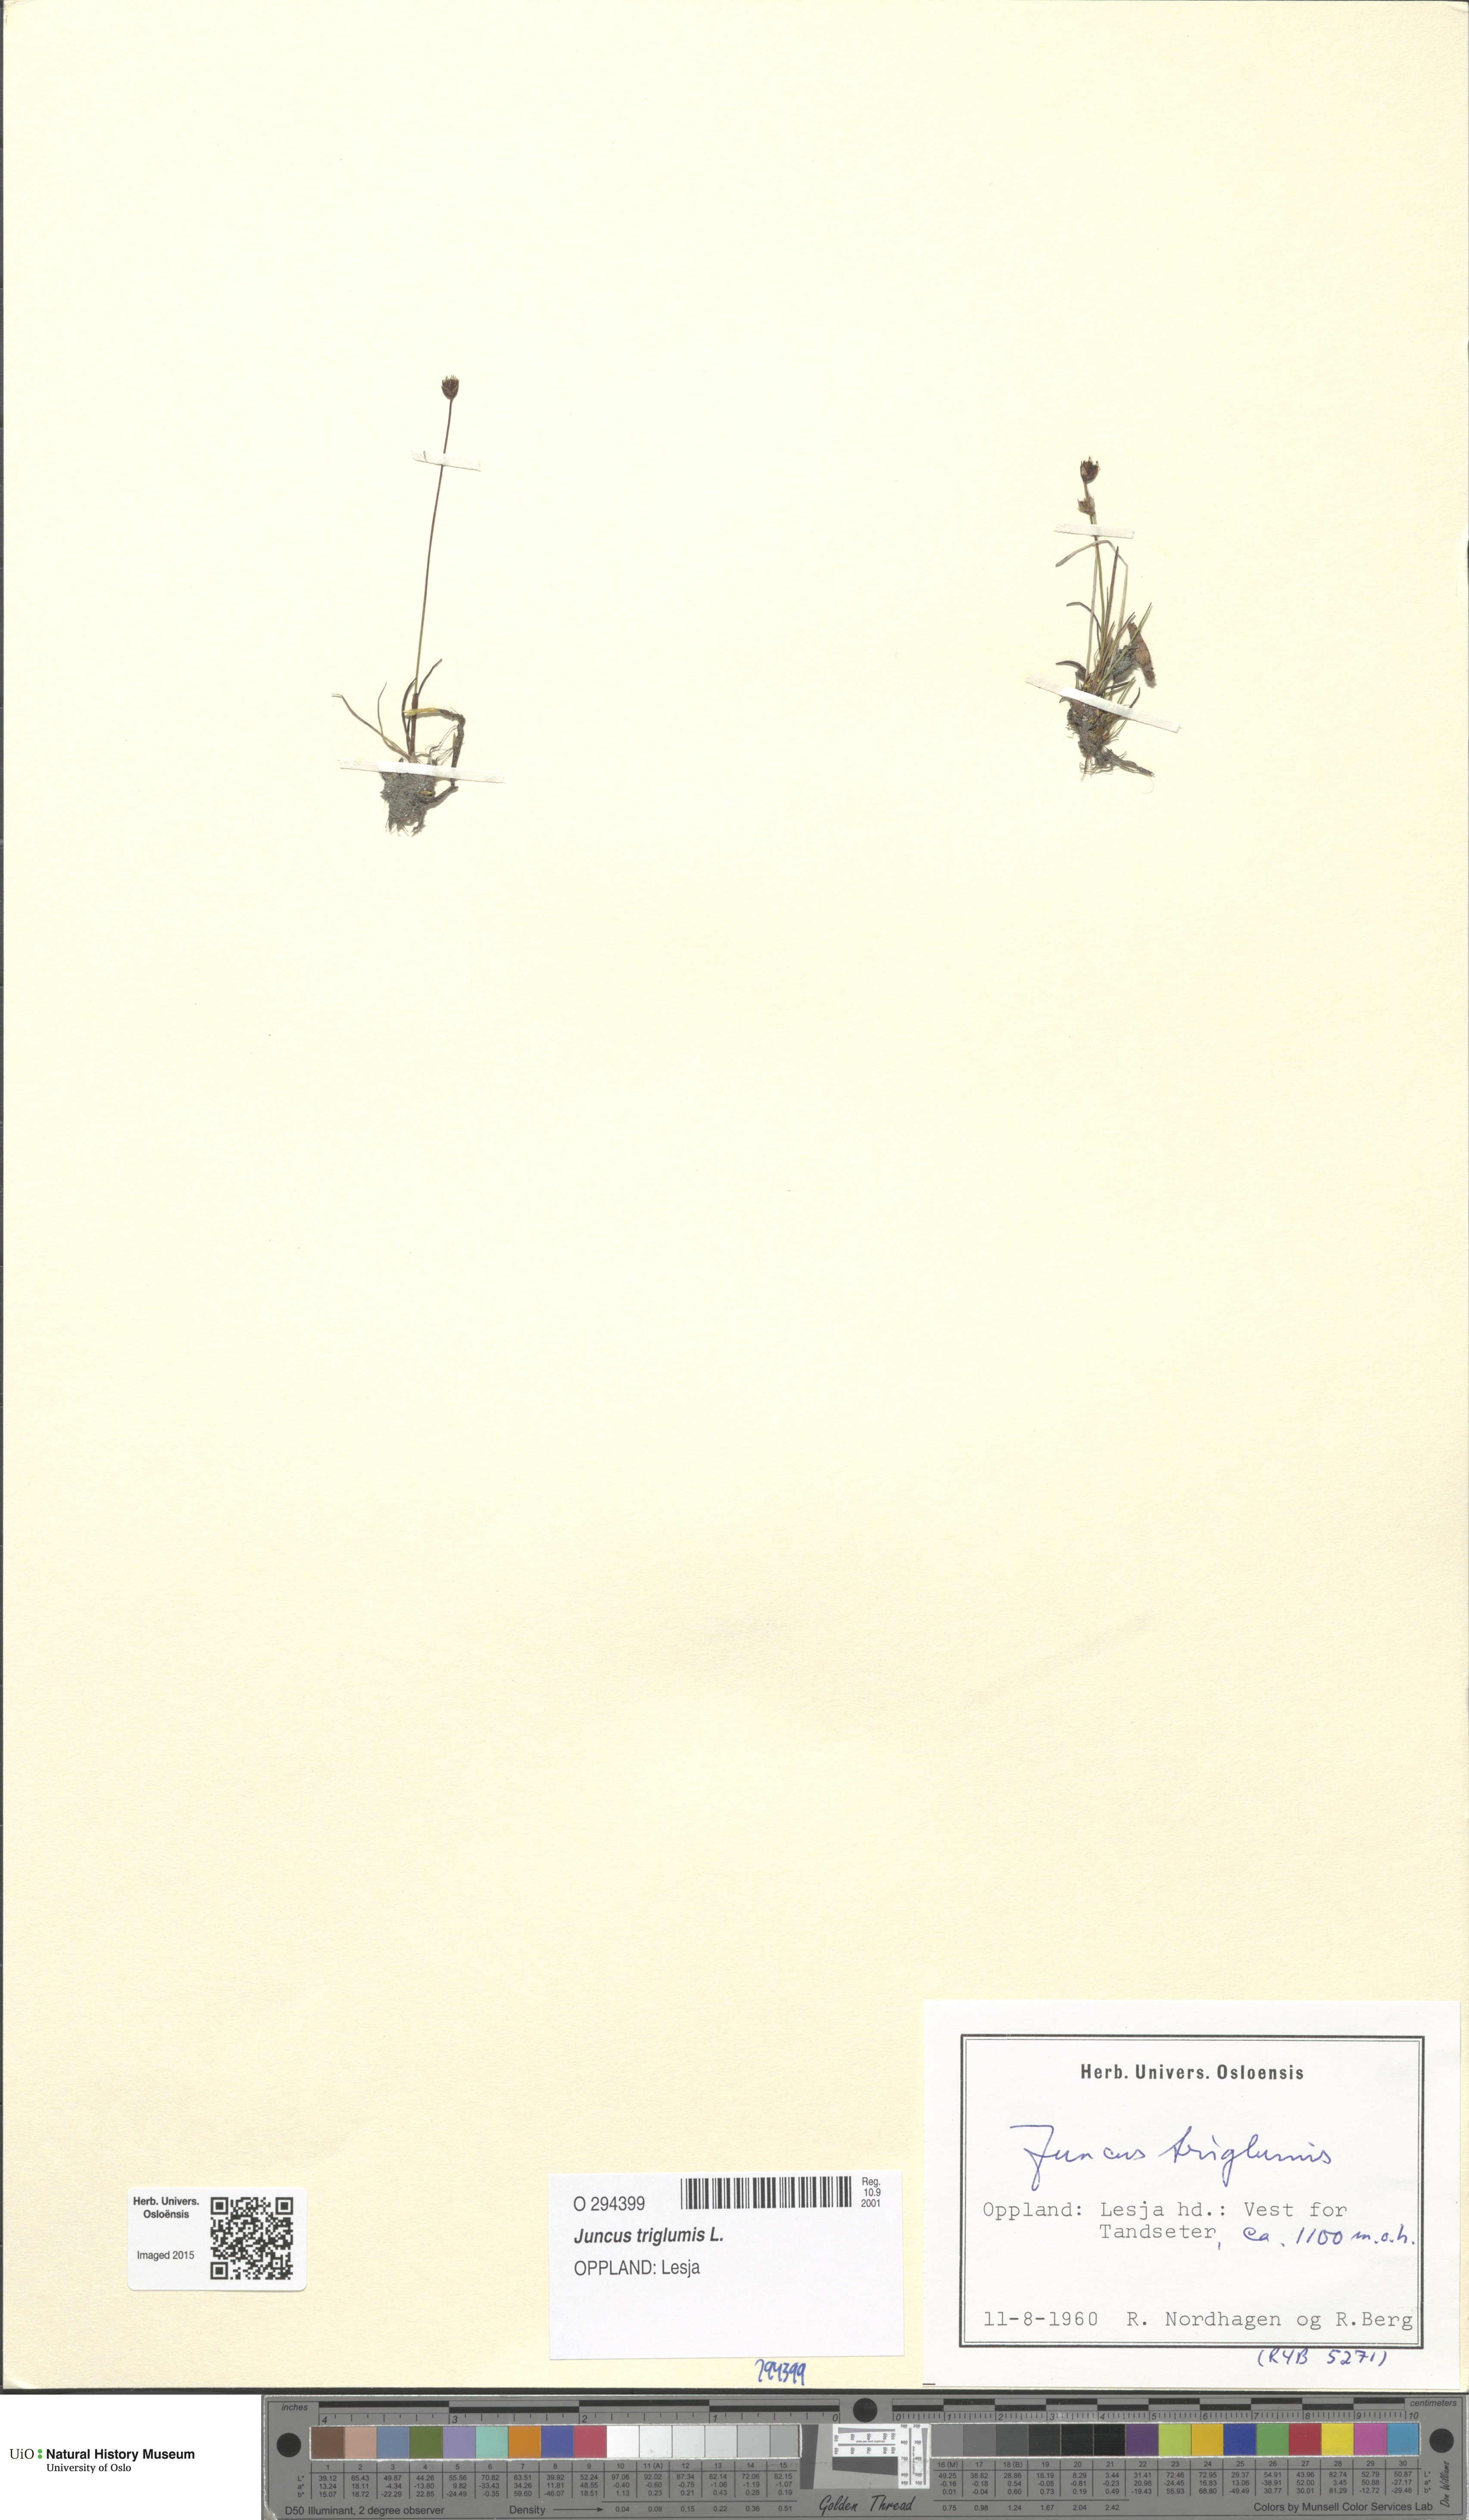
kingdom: Plantae
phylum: Tracheophyta
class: Liliopsida
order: Poales
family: Juncaceae
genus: Juncus
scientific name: Juncus triglumis
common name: Three-flowered rush
